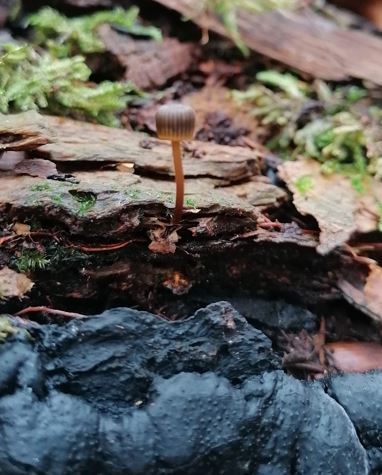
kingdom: Fungi
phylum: Basidiomycota
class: Agaricomycetes
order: Agaricales
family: Mycenaceae
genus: Mycena
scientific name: Mycena picta
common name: kantet huesvamp
